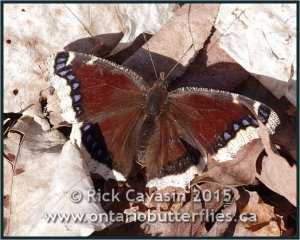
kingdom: Animalia
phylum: Arthropoda
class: Insecta
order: Lepidoptera
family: Nymphalidae
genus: Nymphalis
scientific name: Nymphalis antiopa
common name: Mourning Cloak
